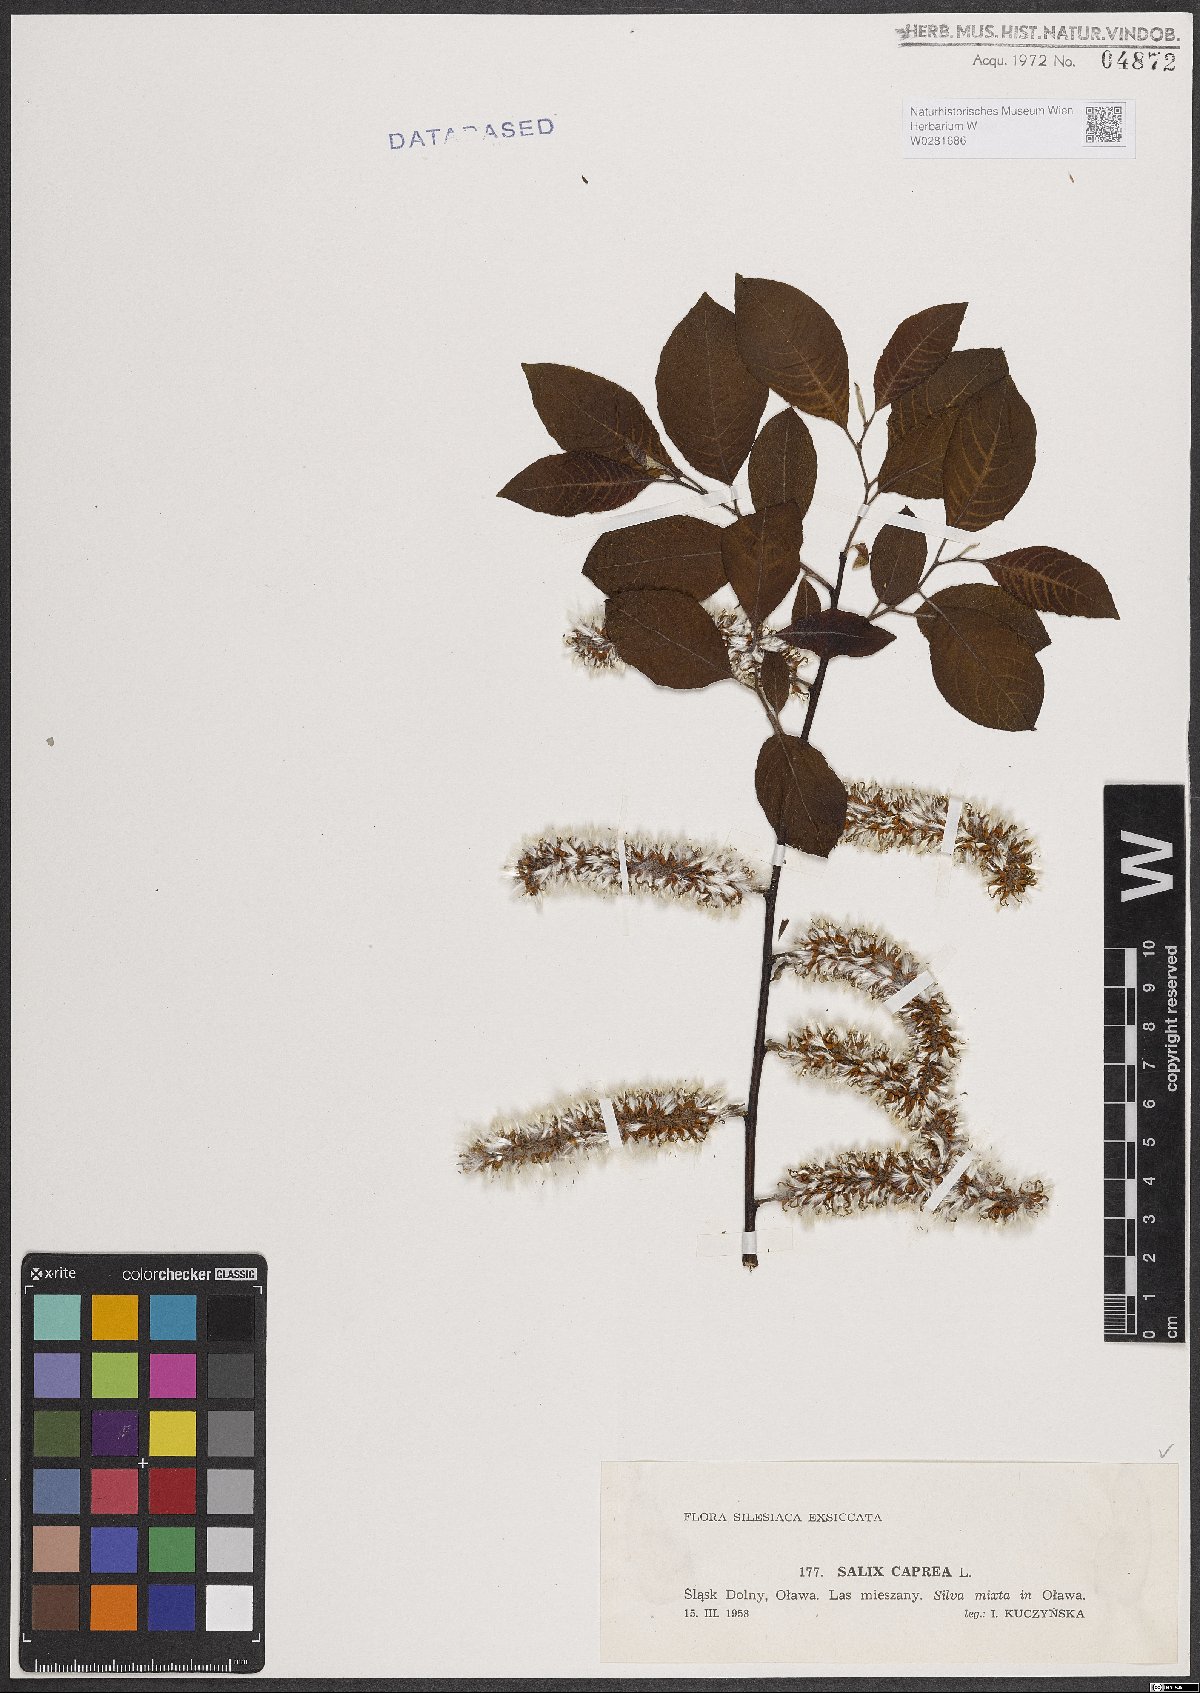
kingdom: Plantae
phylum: Tracheophyta
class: Magnoliopsida
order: Malpighiales
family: Salicaceae
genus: Salix
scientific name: Salix caprea
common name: Goat willow
